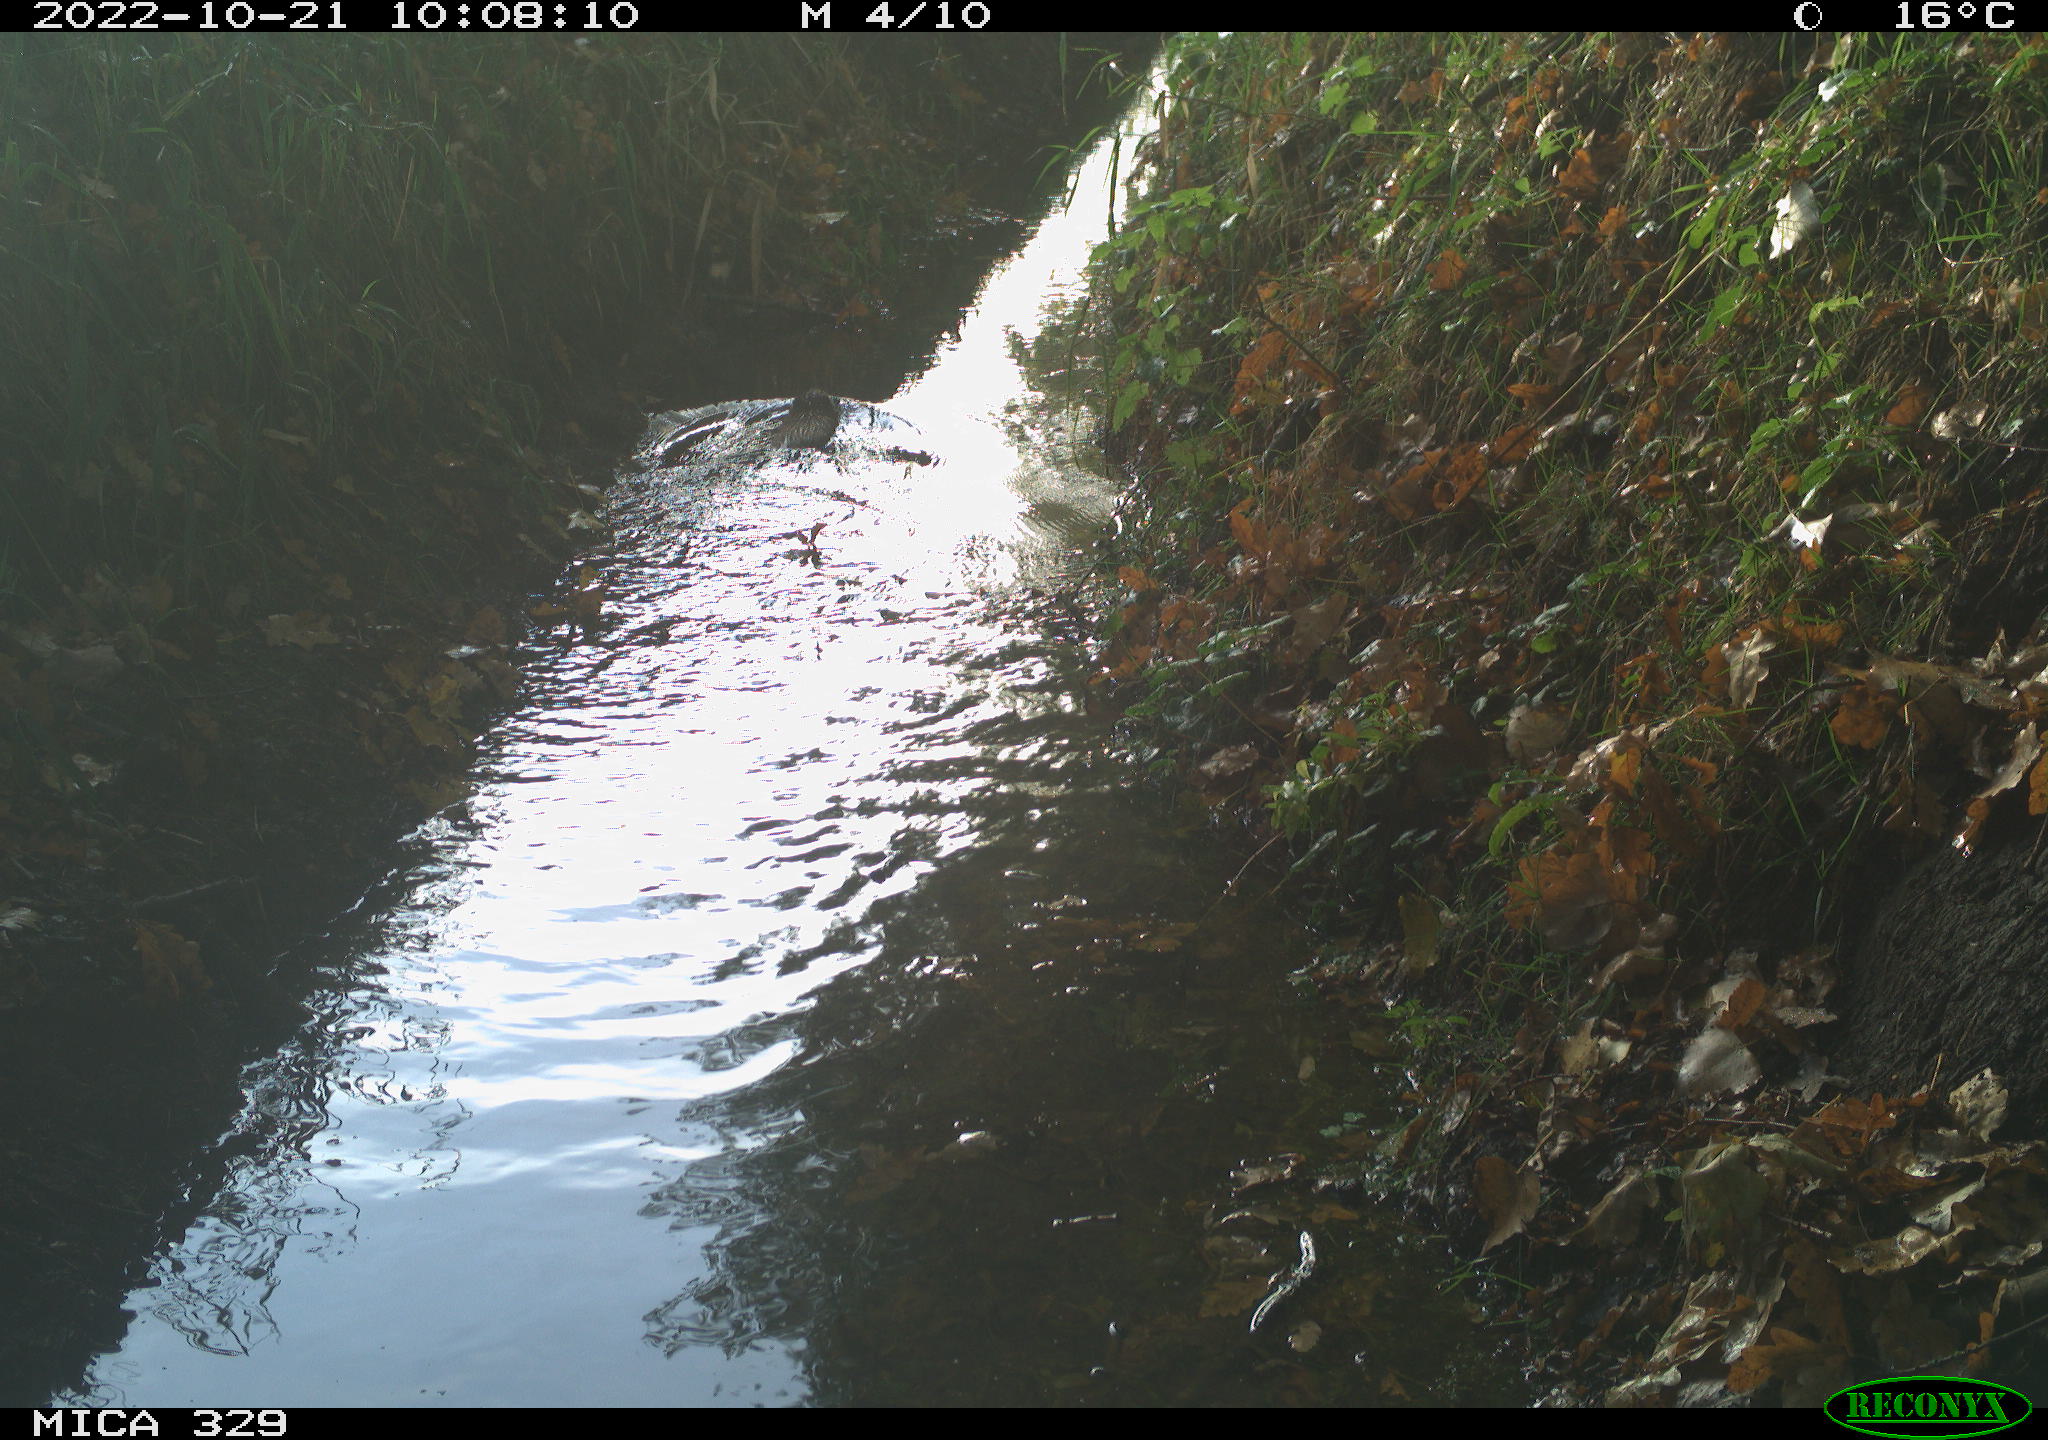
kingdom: Animalia
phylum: Chordata
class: Mammalia
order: Rodentia
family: Cricetidae
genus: Ondatra
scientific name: Ondatra zibethicus
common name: Muskrat
